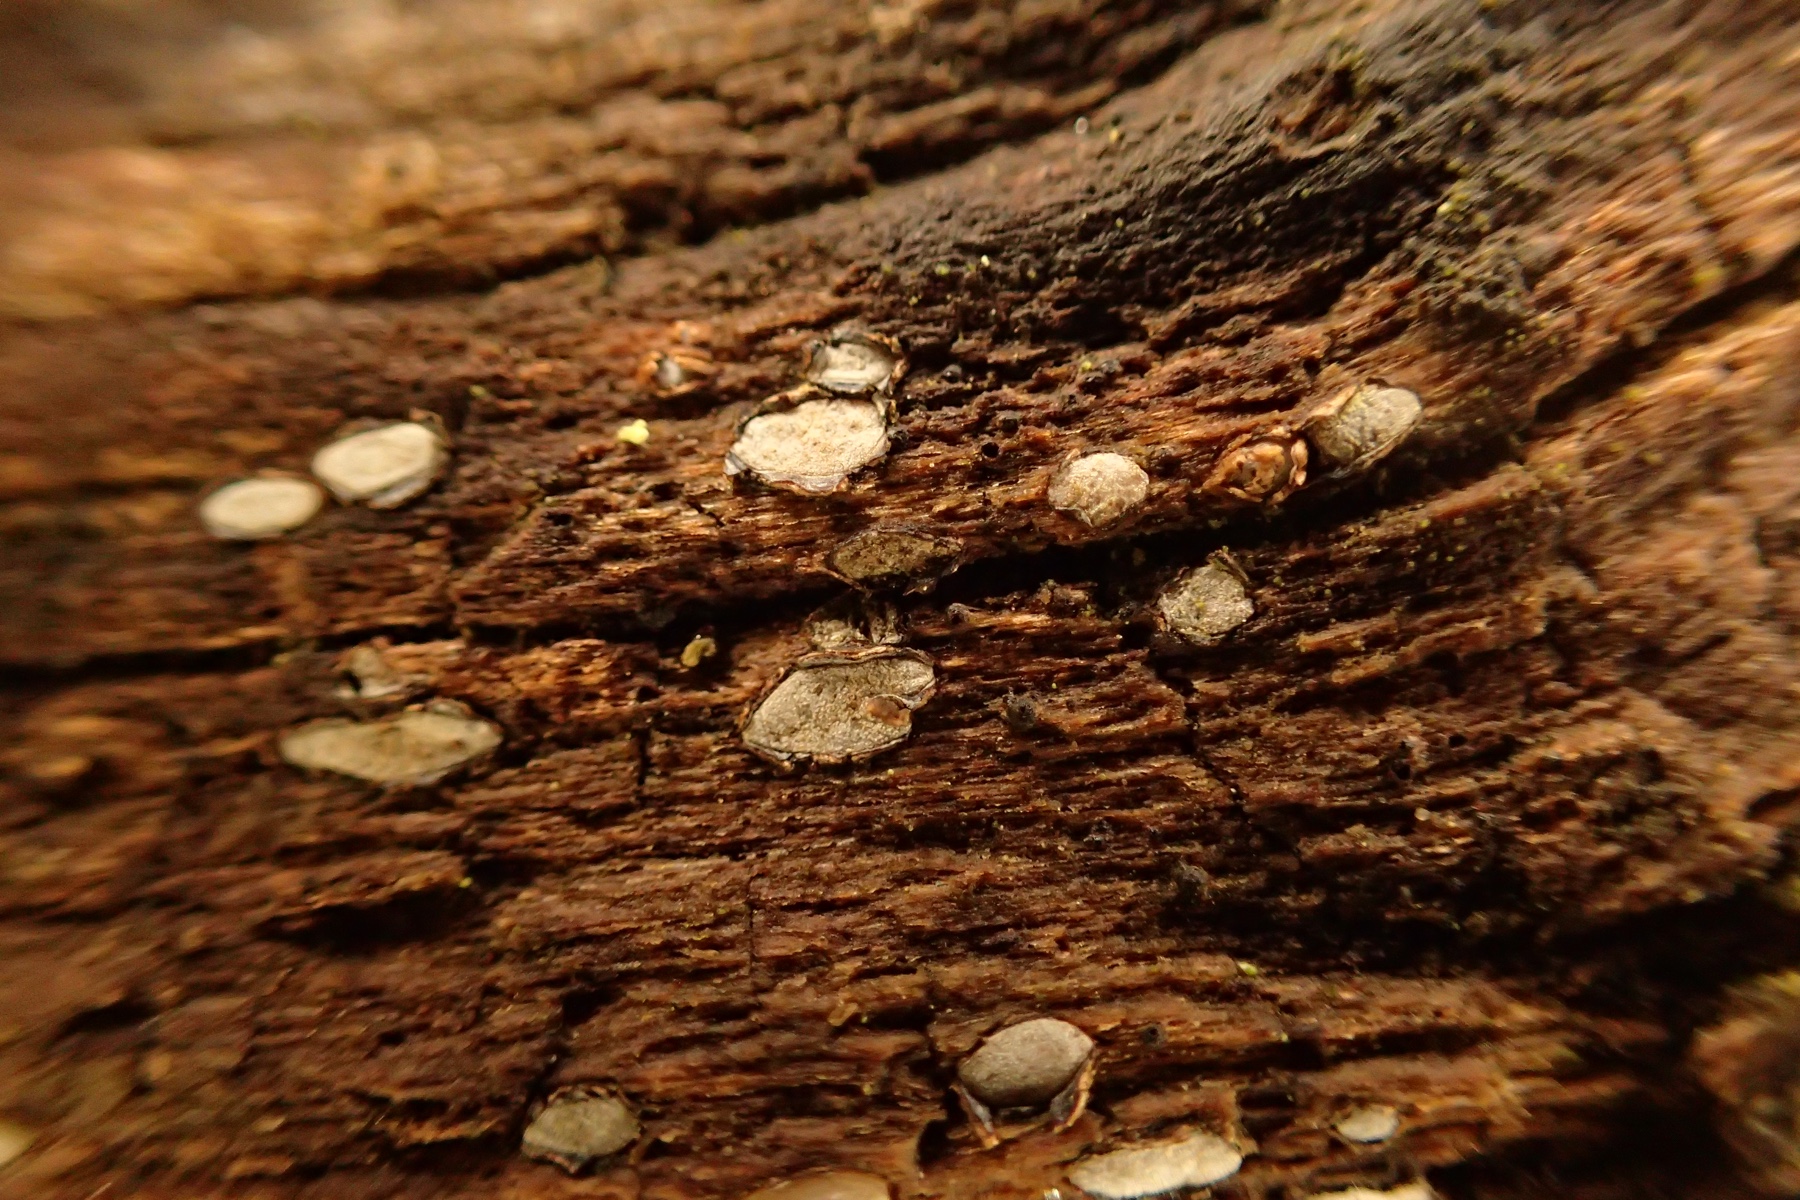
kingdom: Fungi
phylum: Ascomycota
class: Leotiomycetes
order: Chaetomellales
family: Marthamycetaceae
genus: Propolis
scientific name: Propolis farinosa
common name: almindelig vedsprængerskive
